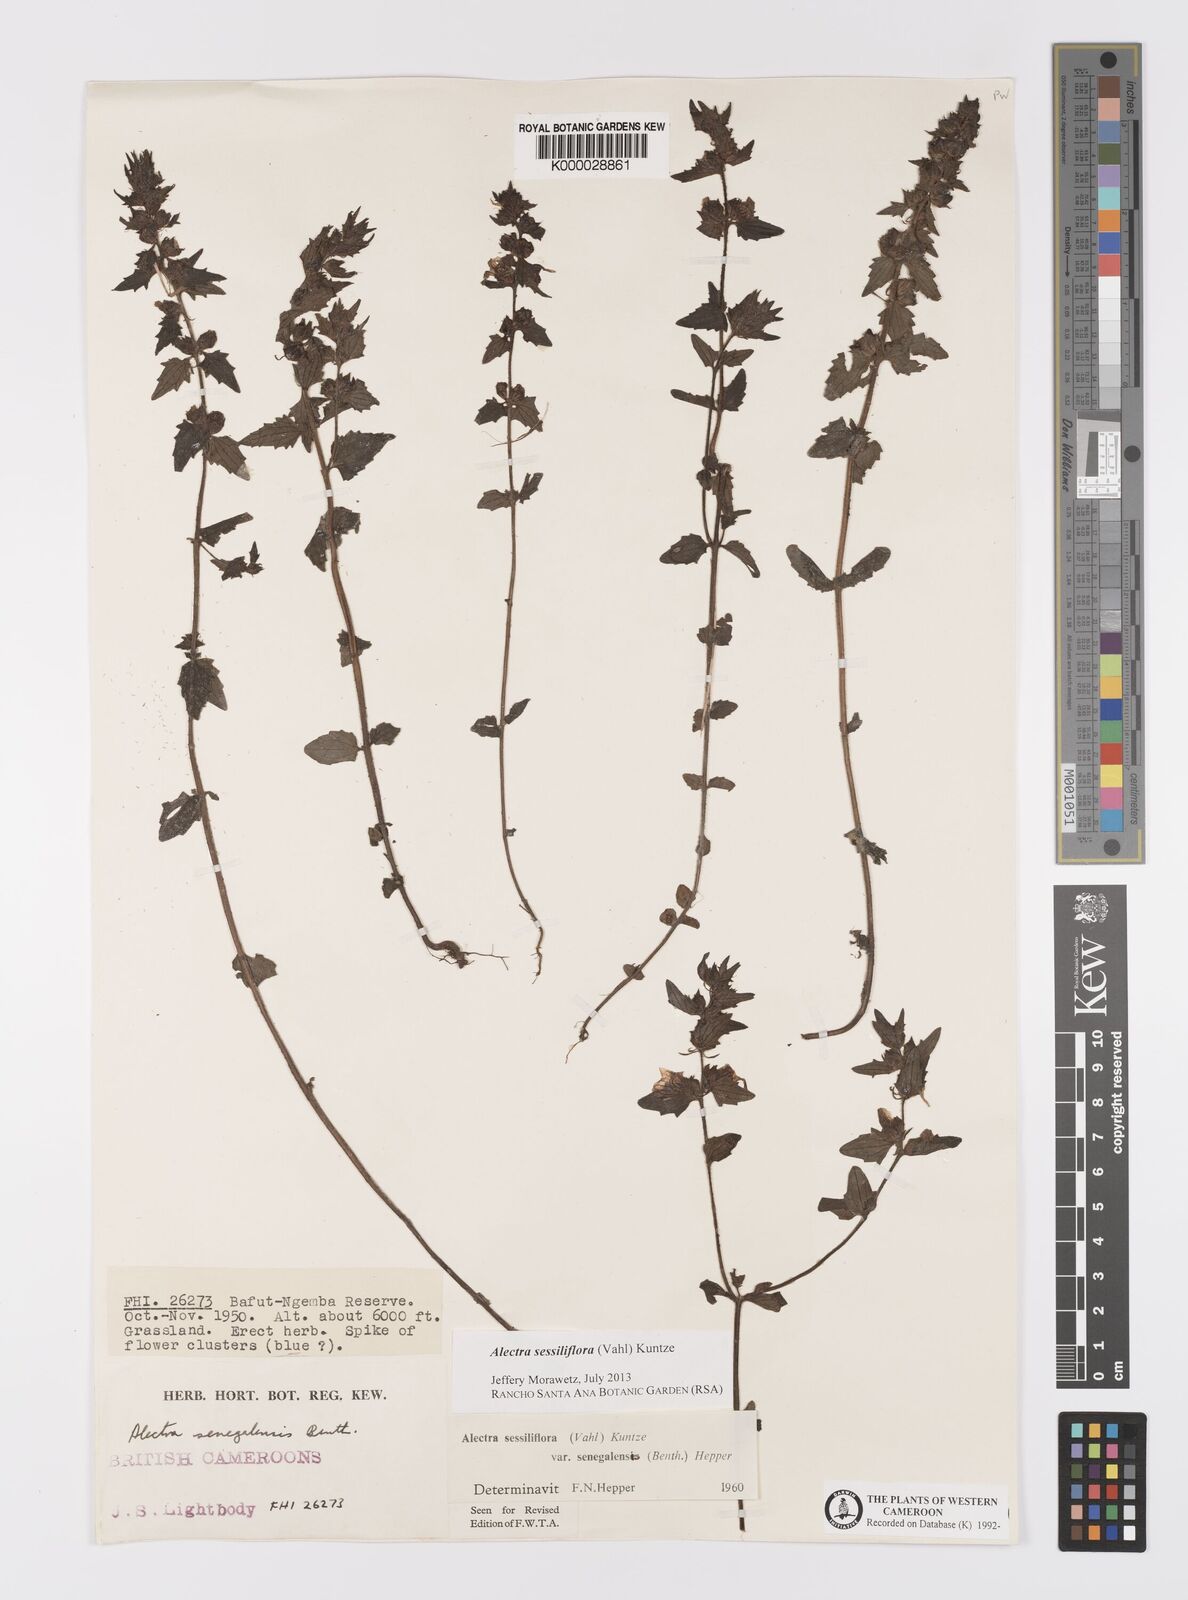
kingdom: Plantae
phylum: Tracheophyta
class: Magnoliopsida
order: Lamiales
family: Orobanchaceae
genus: Alectra
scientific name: Alectra sessiliflora
